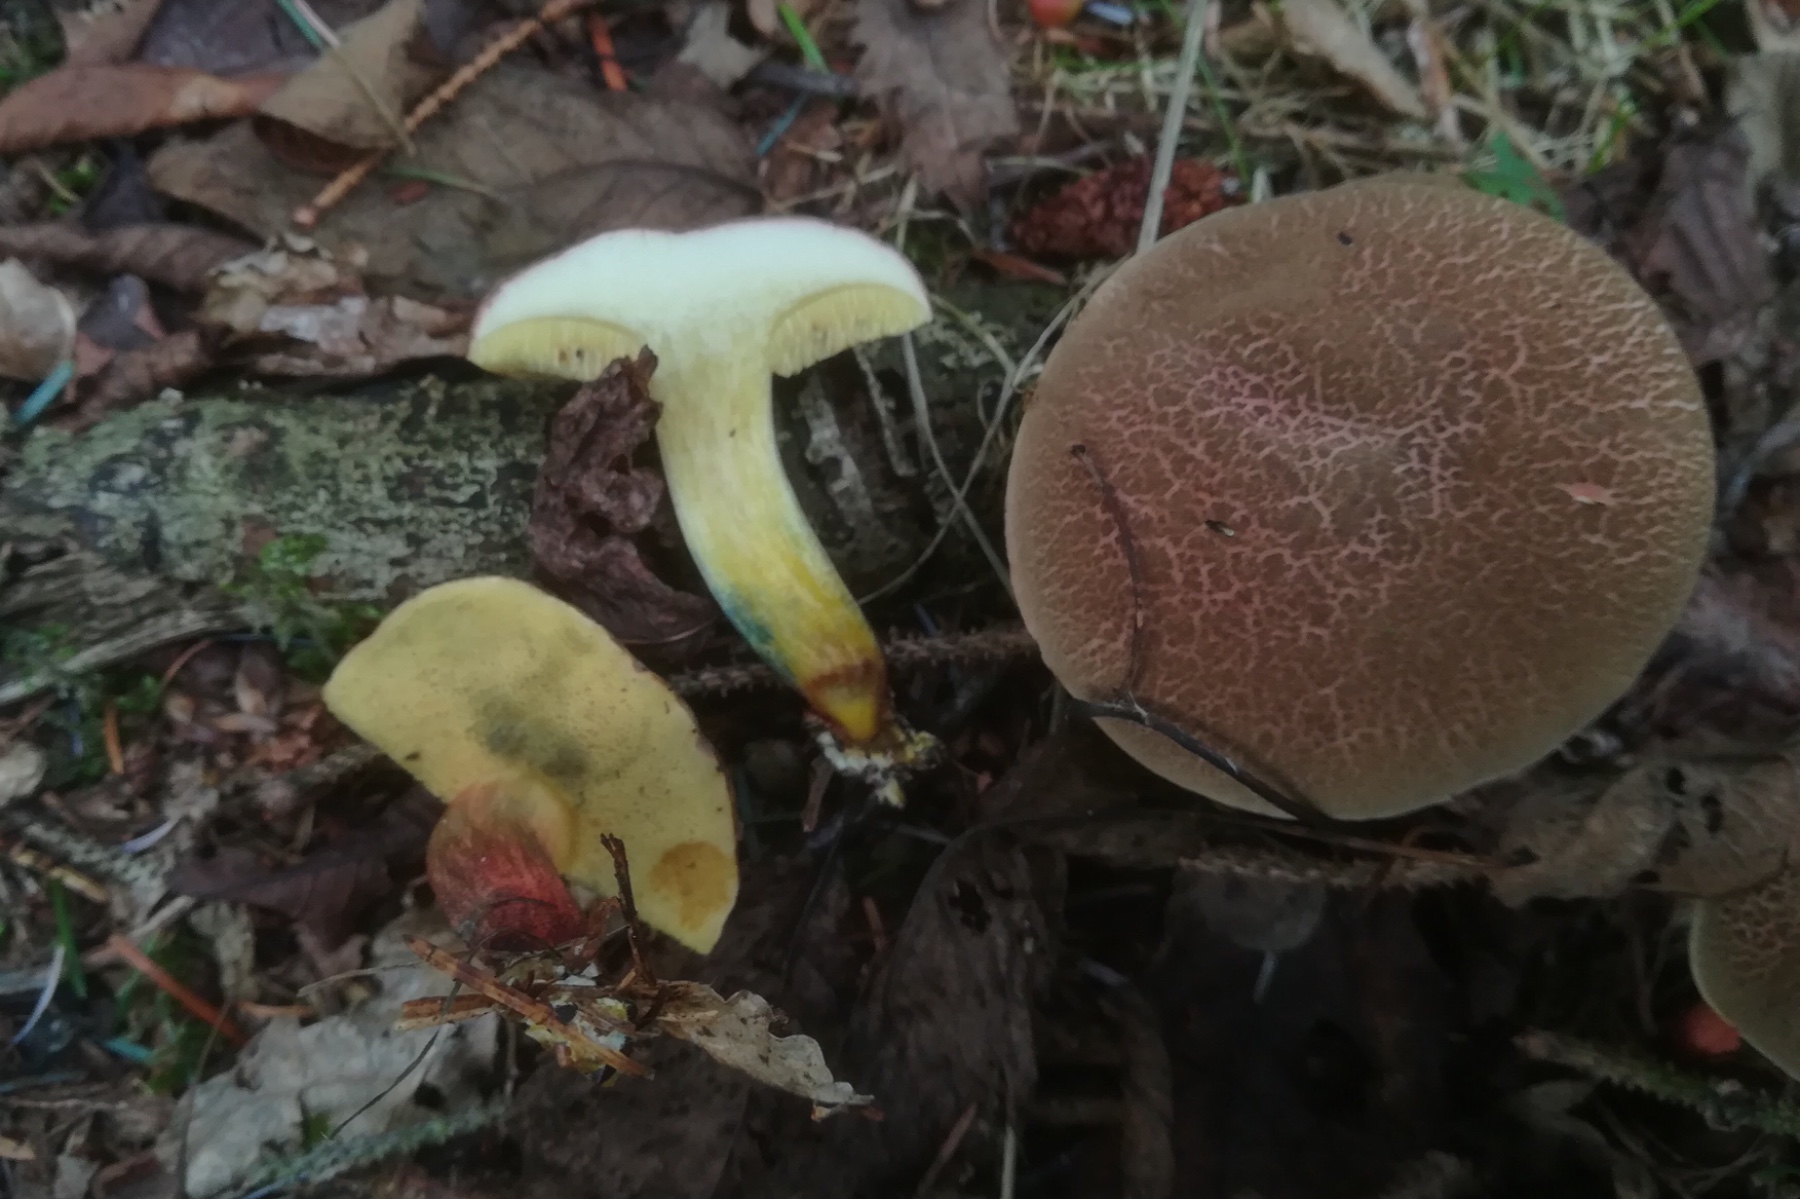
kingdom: Fungi
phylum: Basidiomycota
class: Agaricomycetes
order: Boletales
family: Boletaceae
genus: Xerocomellus
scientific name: Xerocomellus chrysenteron
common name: rødsprukken rørhat
